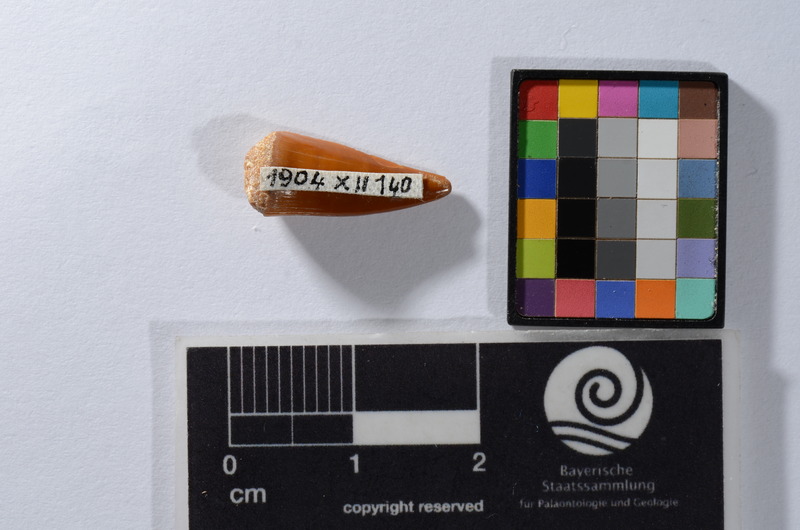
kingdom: Animalia
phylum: Chordata
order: Perciformes
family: Sphyraenidae
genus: Sphyraena
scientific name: Sphyraena Saurocephalus fajumensis
